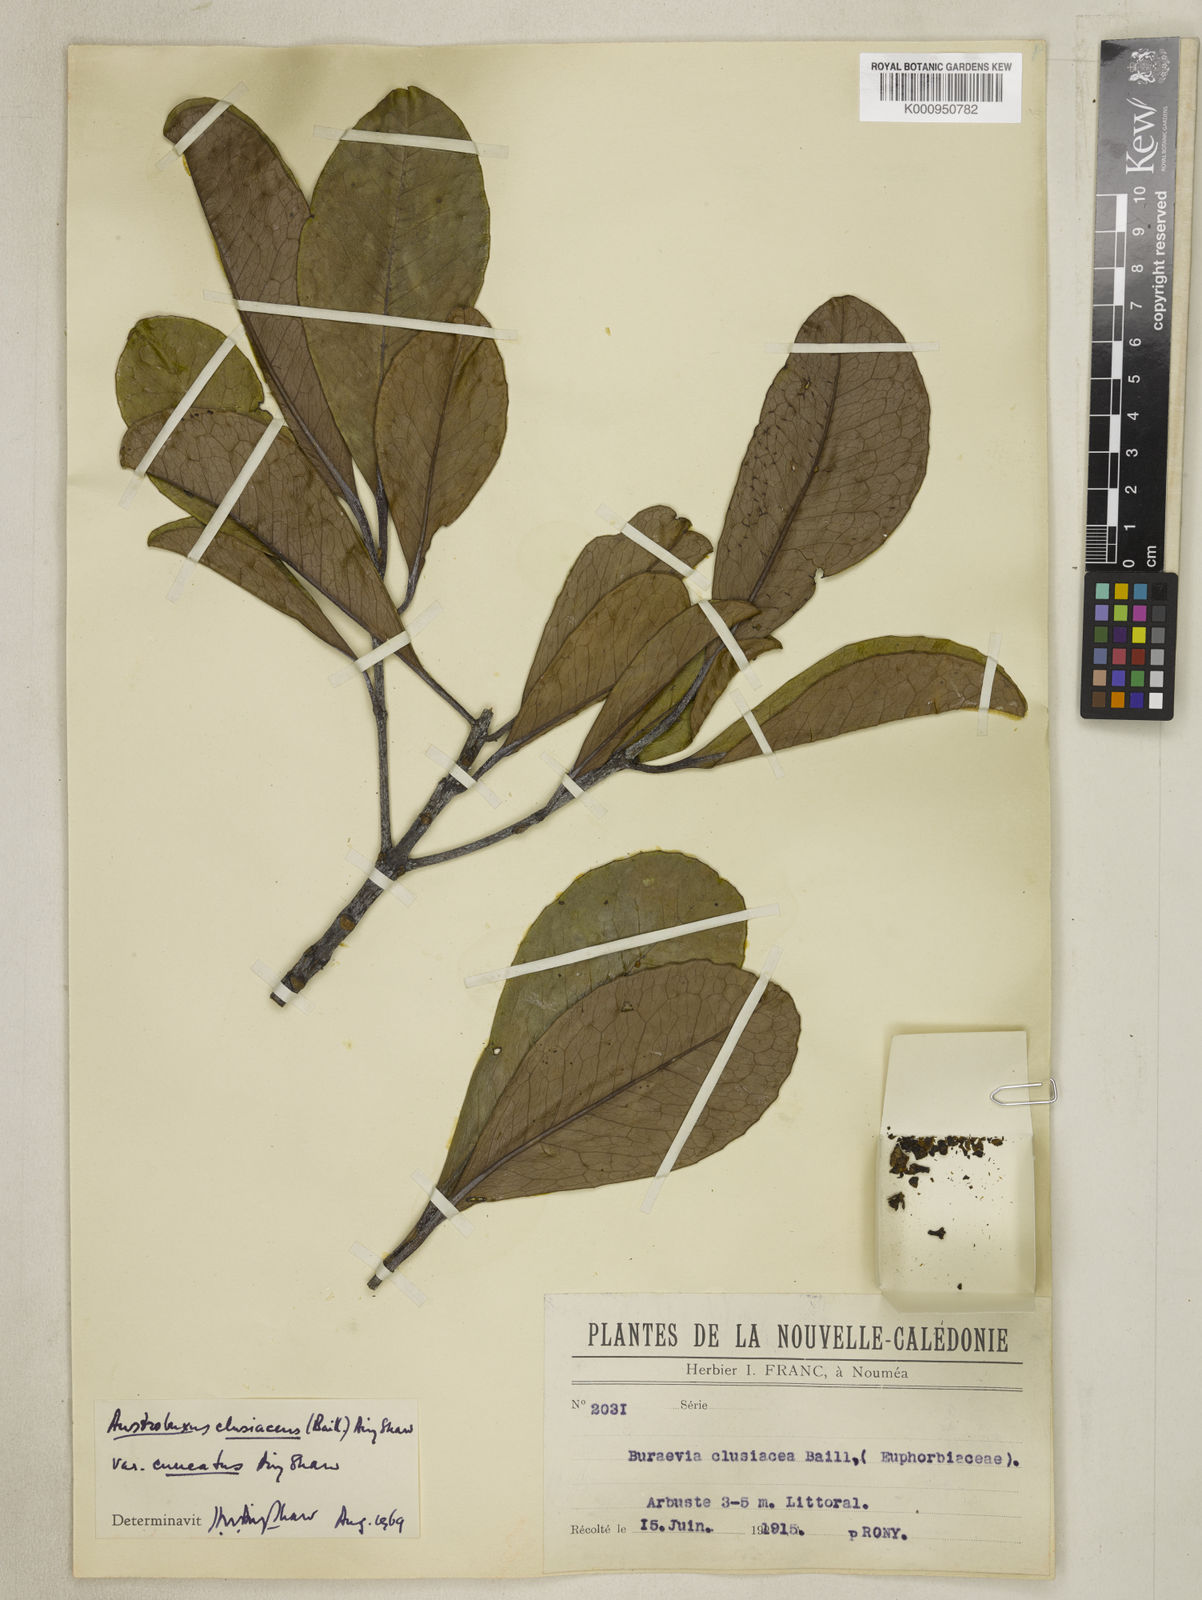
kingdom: Plantae
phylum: Tracheophyta
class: Magnoliopsida
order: Malpighiales
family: Picrodendraceae
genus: Austrobuxus
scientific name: Austrobuxus cuneatus
